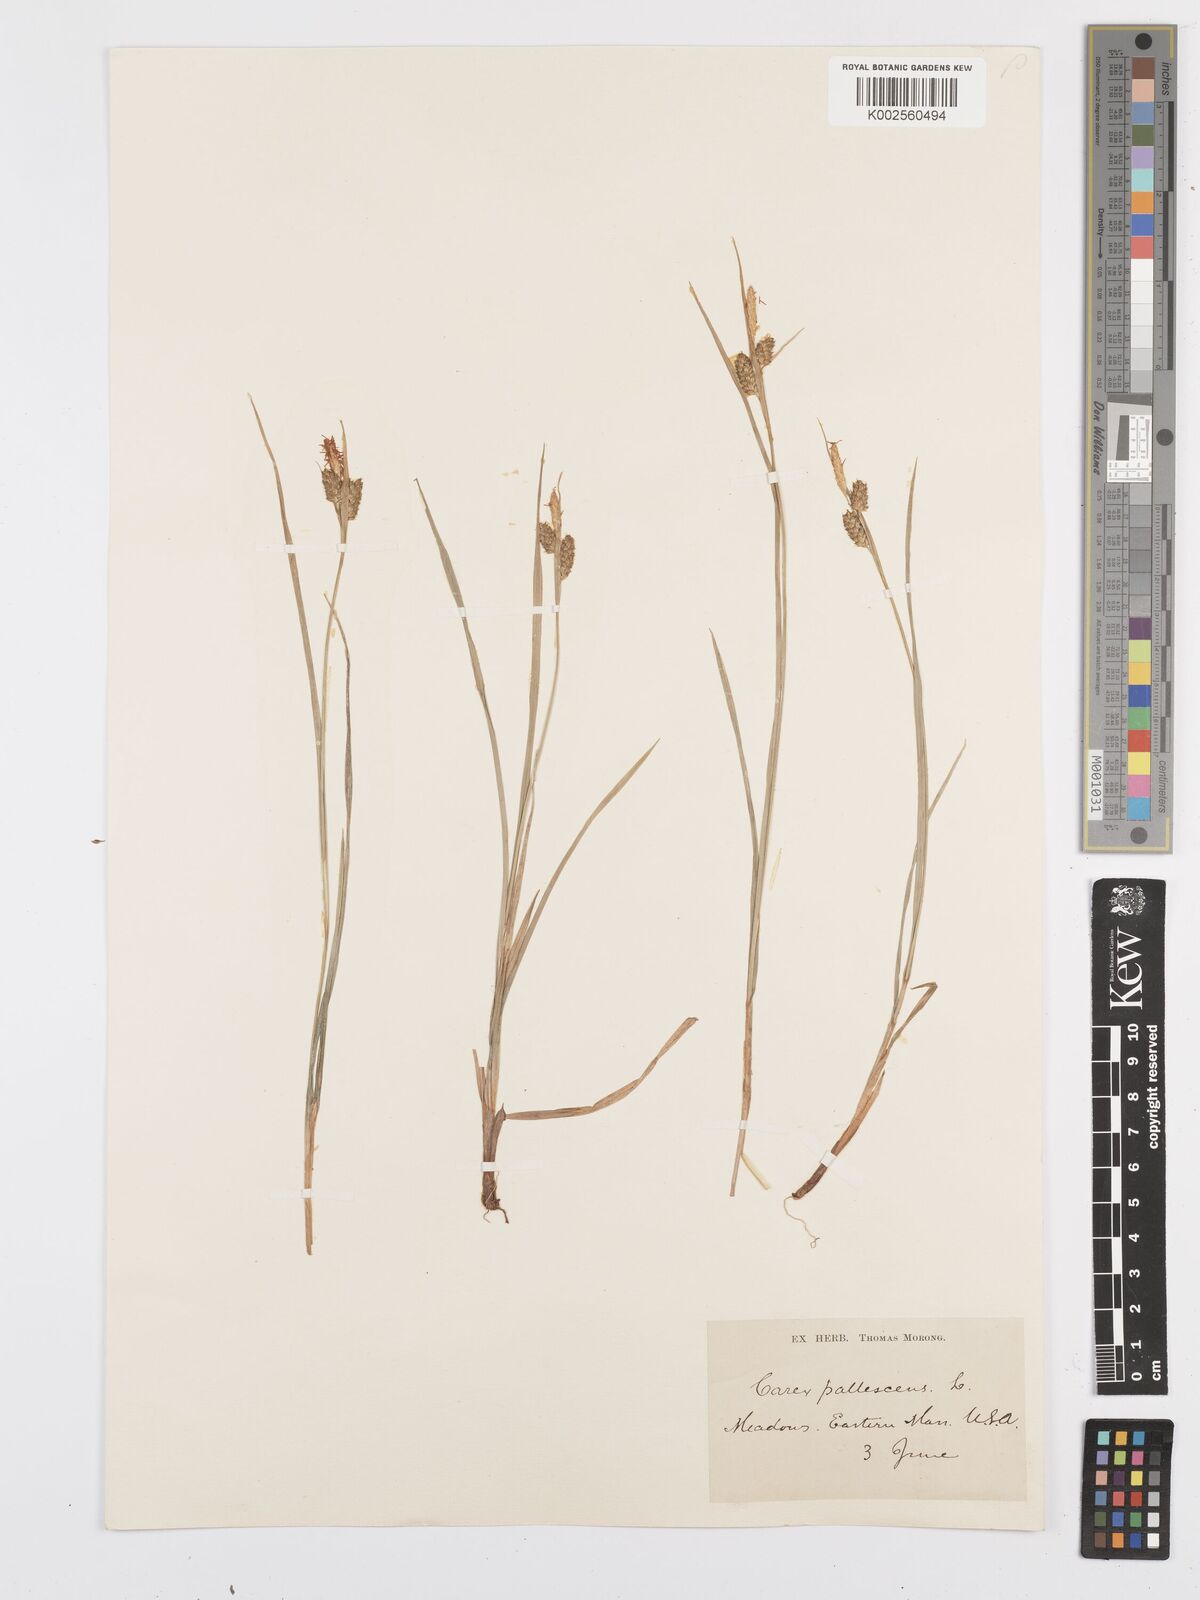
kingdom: Plantae
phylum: Tracheophyta
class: Liliopsida
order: Poales
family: Cyperaceae
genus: Carex
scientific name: Carex pallescens
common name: Pale sedge
